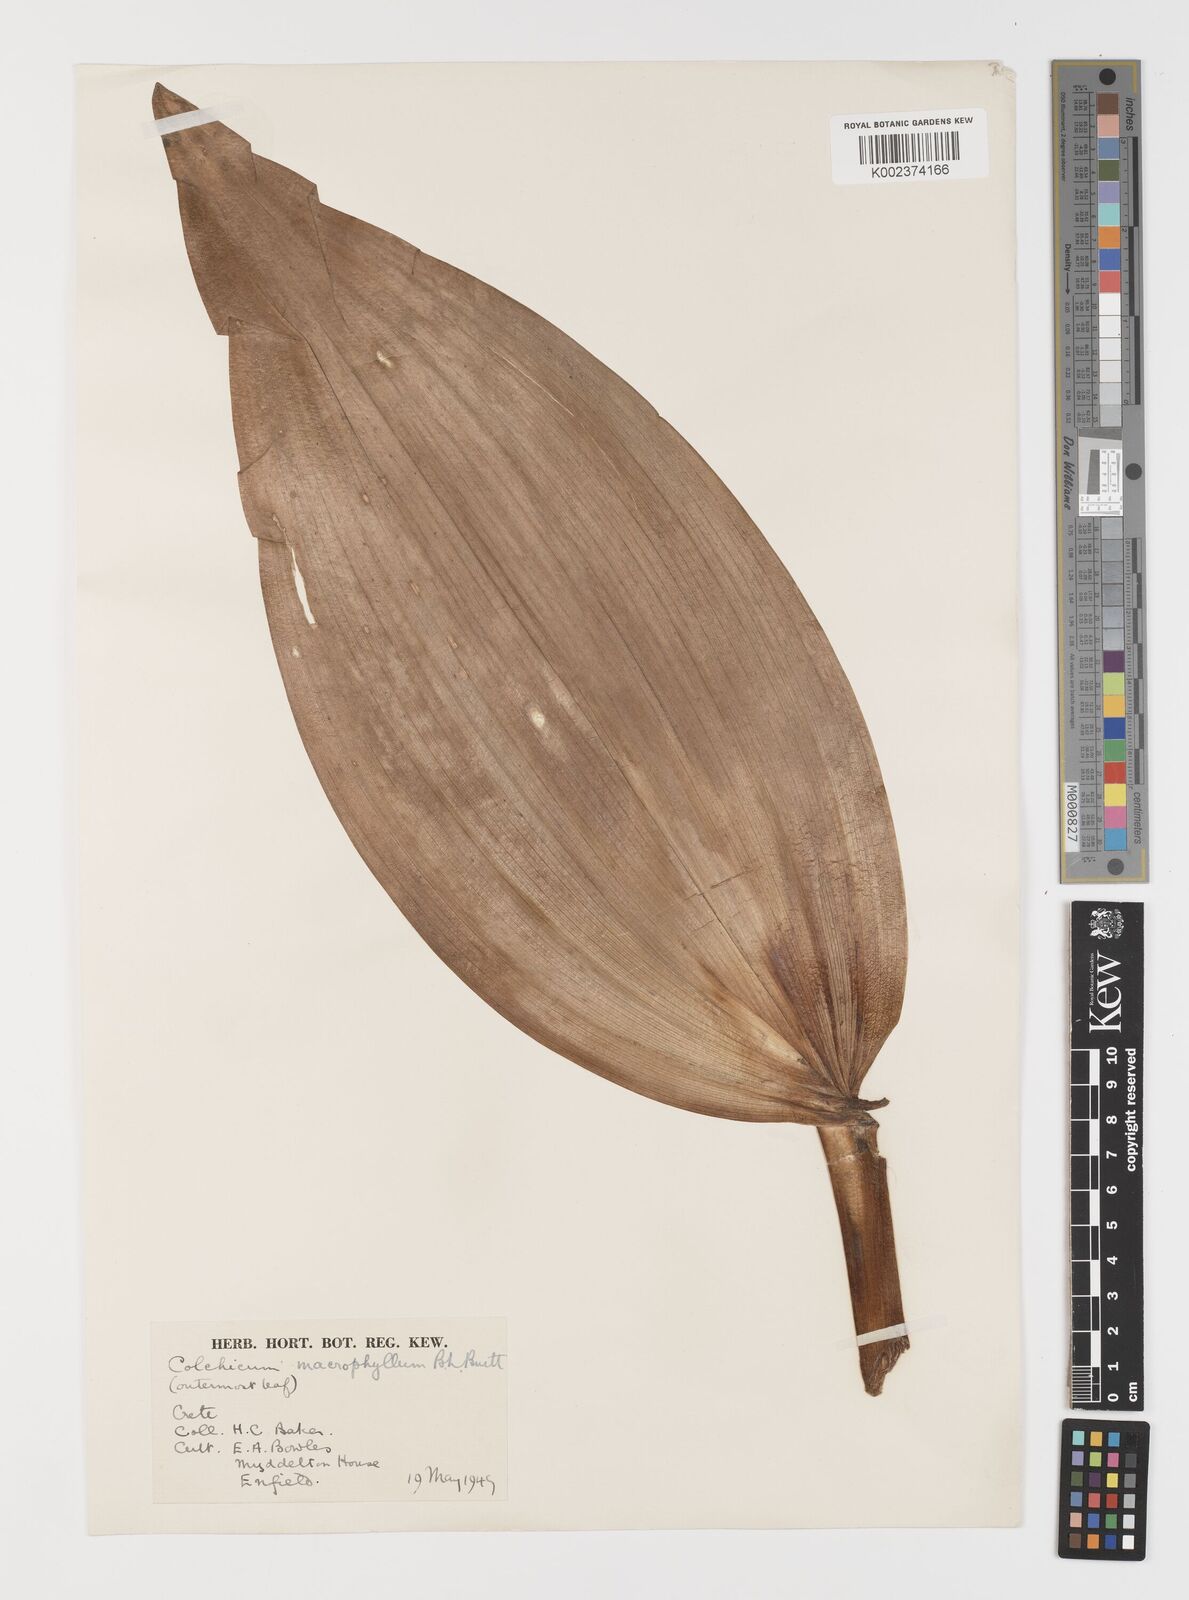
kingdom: Plantae
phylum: Tracheophyta
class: Liliopsida
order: Liliales
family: Colchicaceae
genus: Colchicum
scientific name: Colchicum macrophyllum
